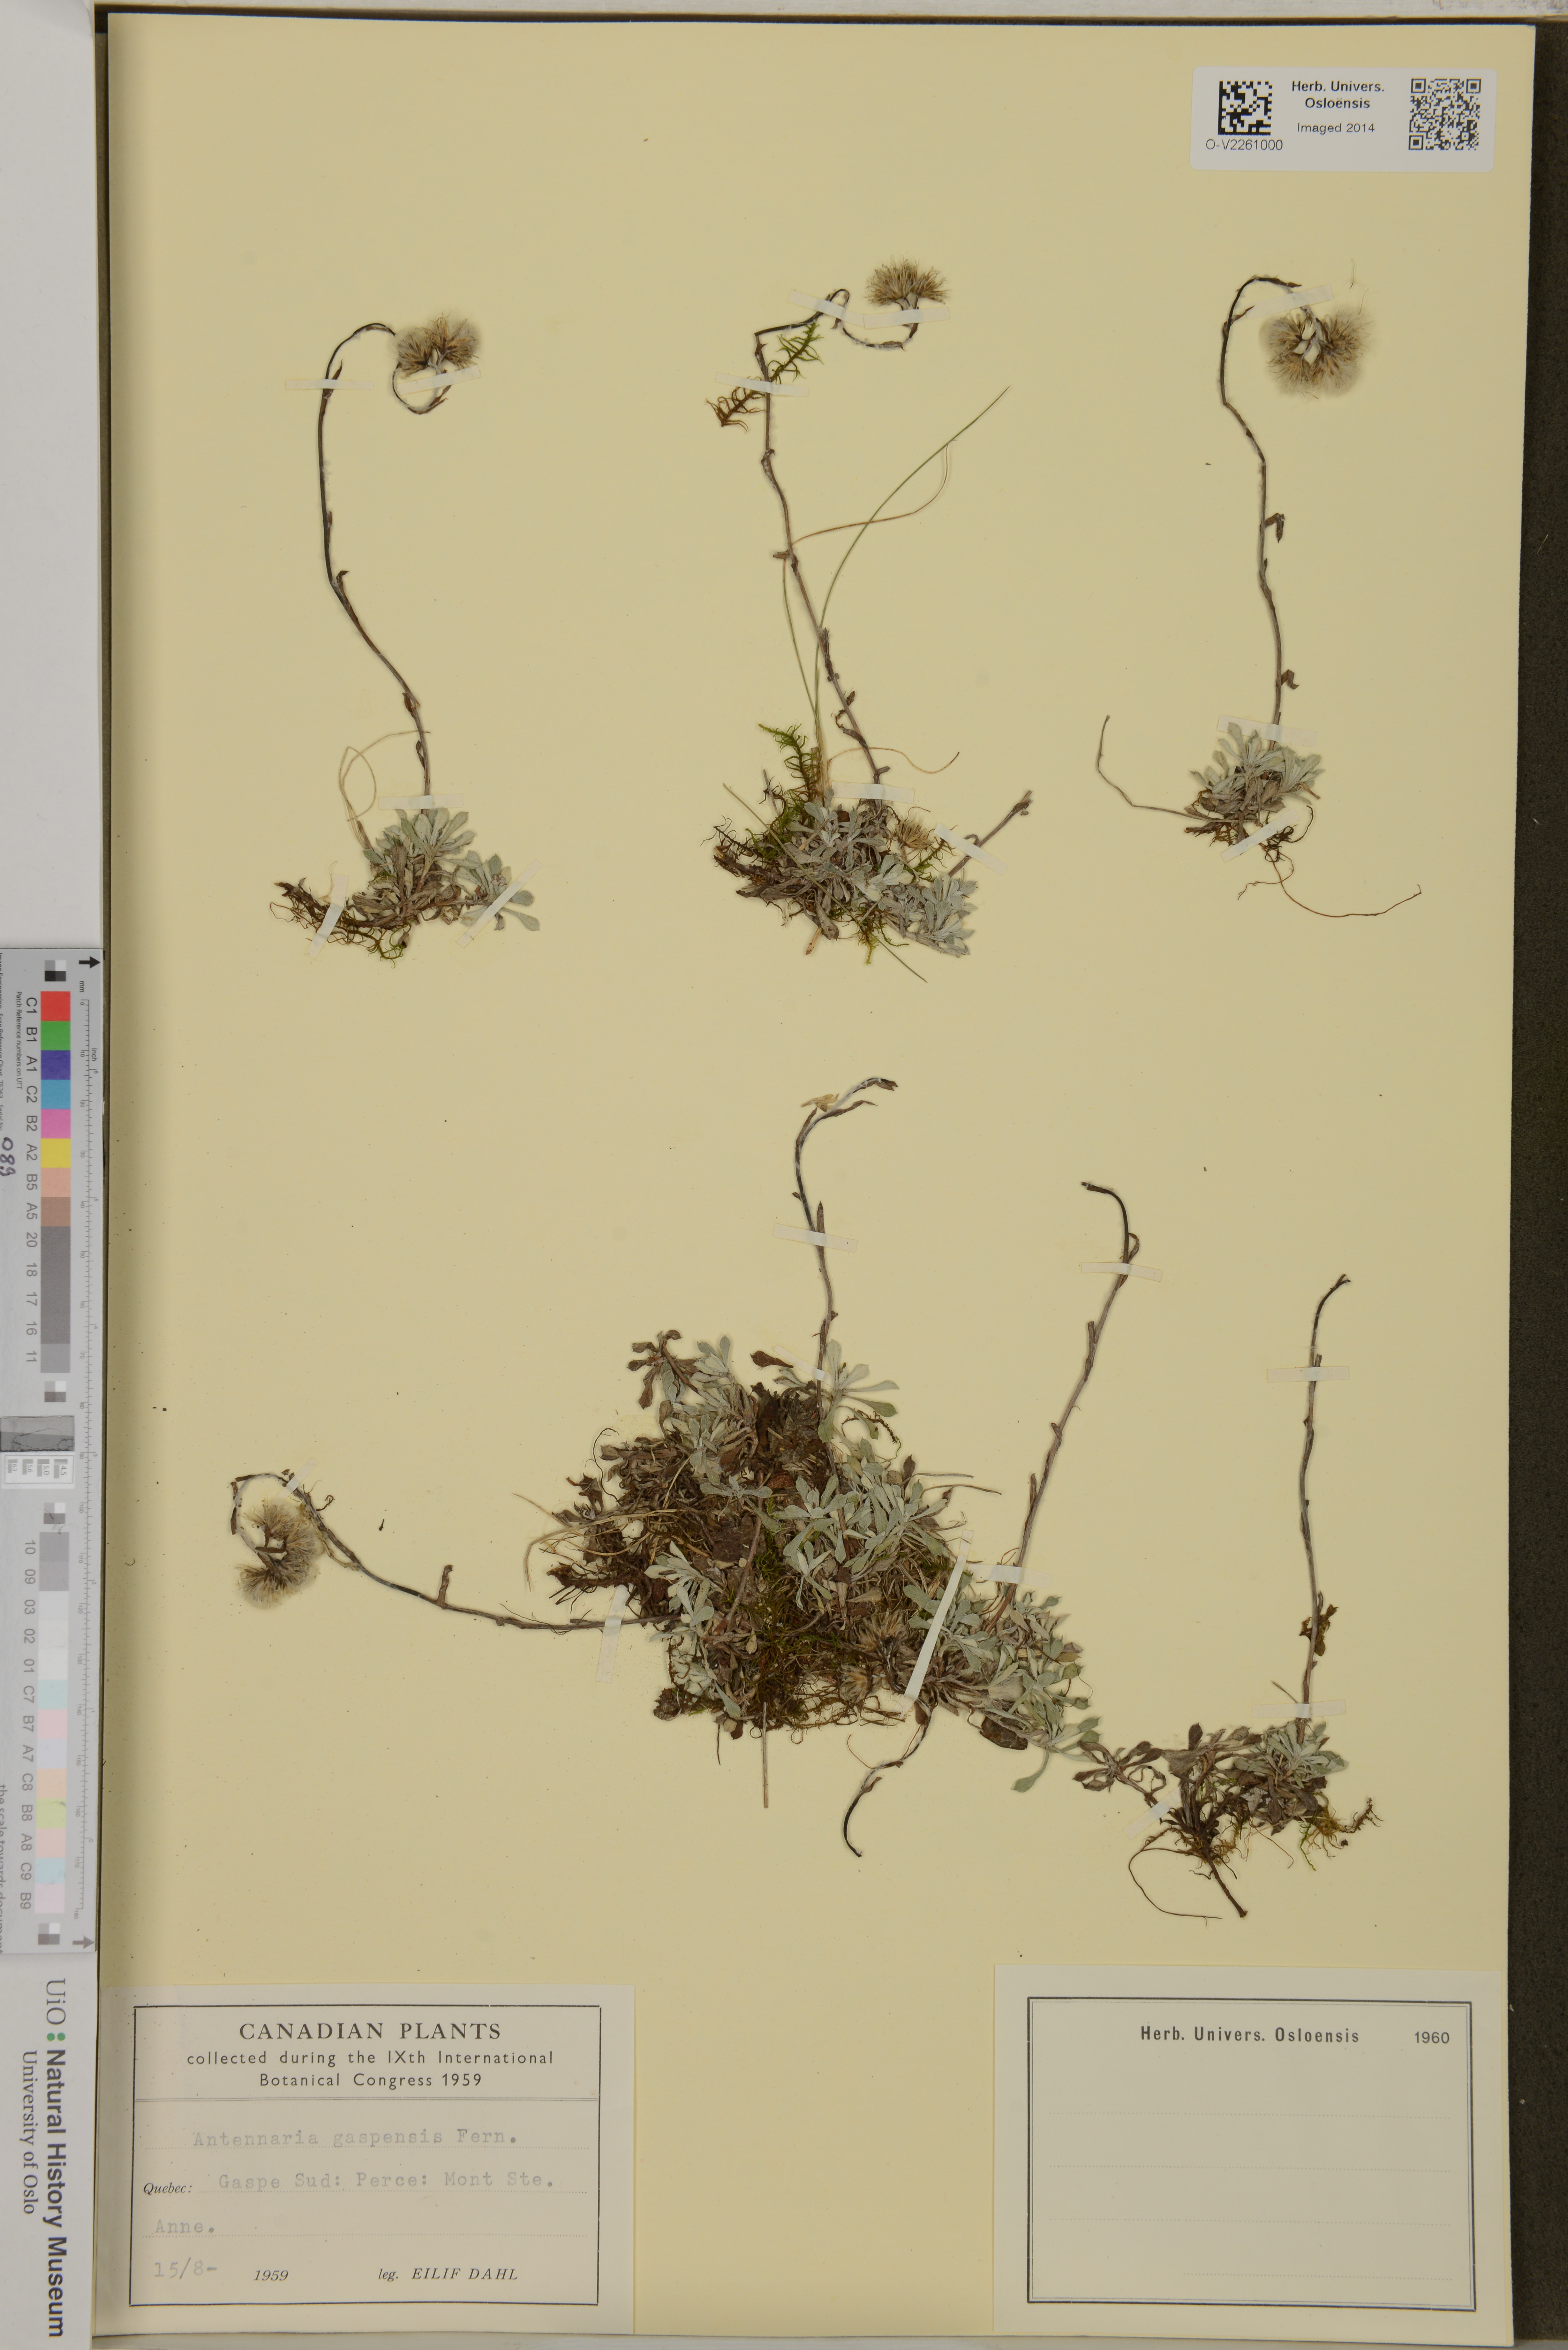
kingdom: Plantae
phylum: Tracheophyta
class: Magnoliopsida
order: Asterales
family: Asteraceae
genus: Antennaria
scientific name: Antennaria rosea
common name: Rosy pussytoes
